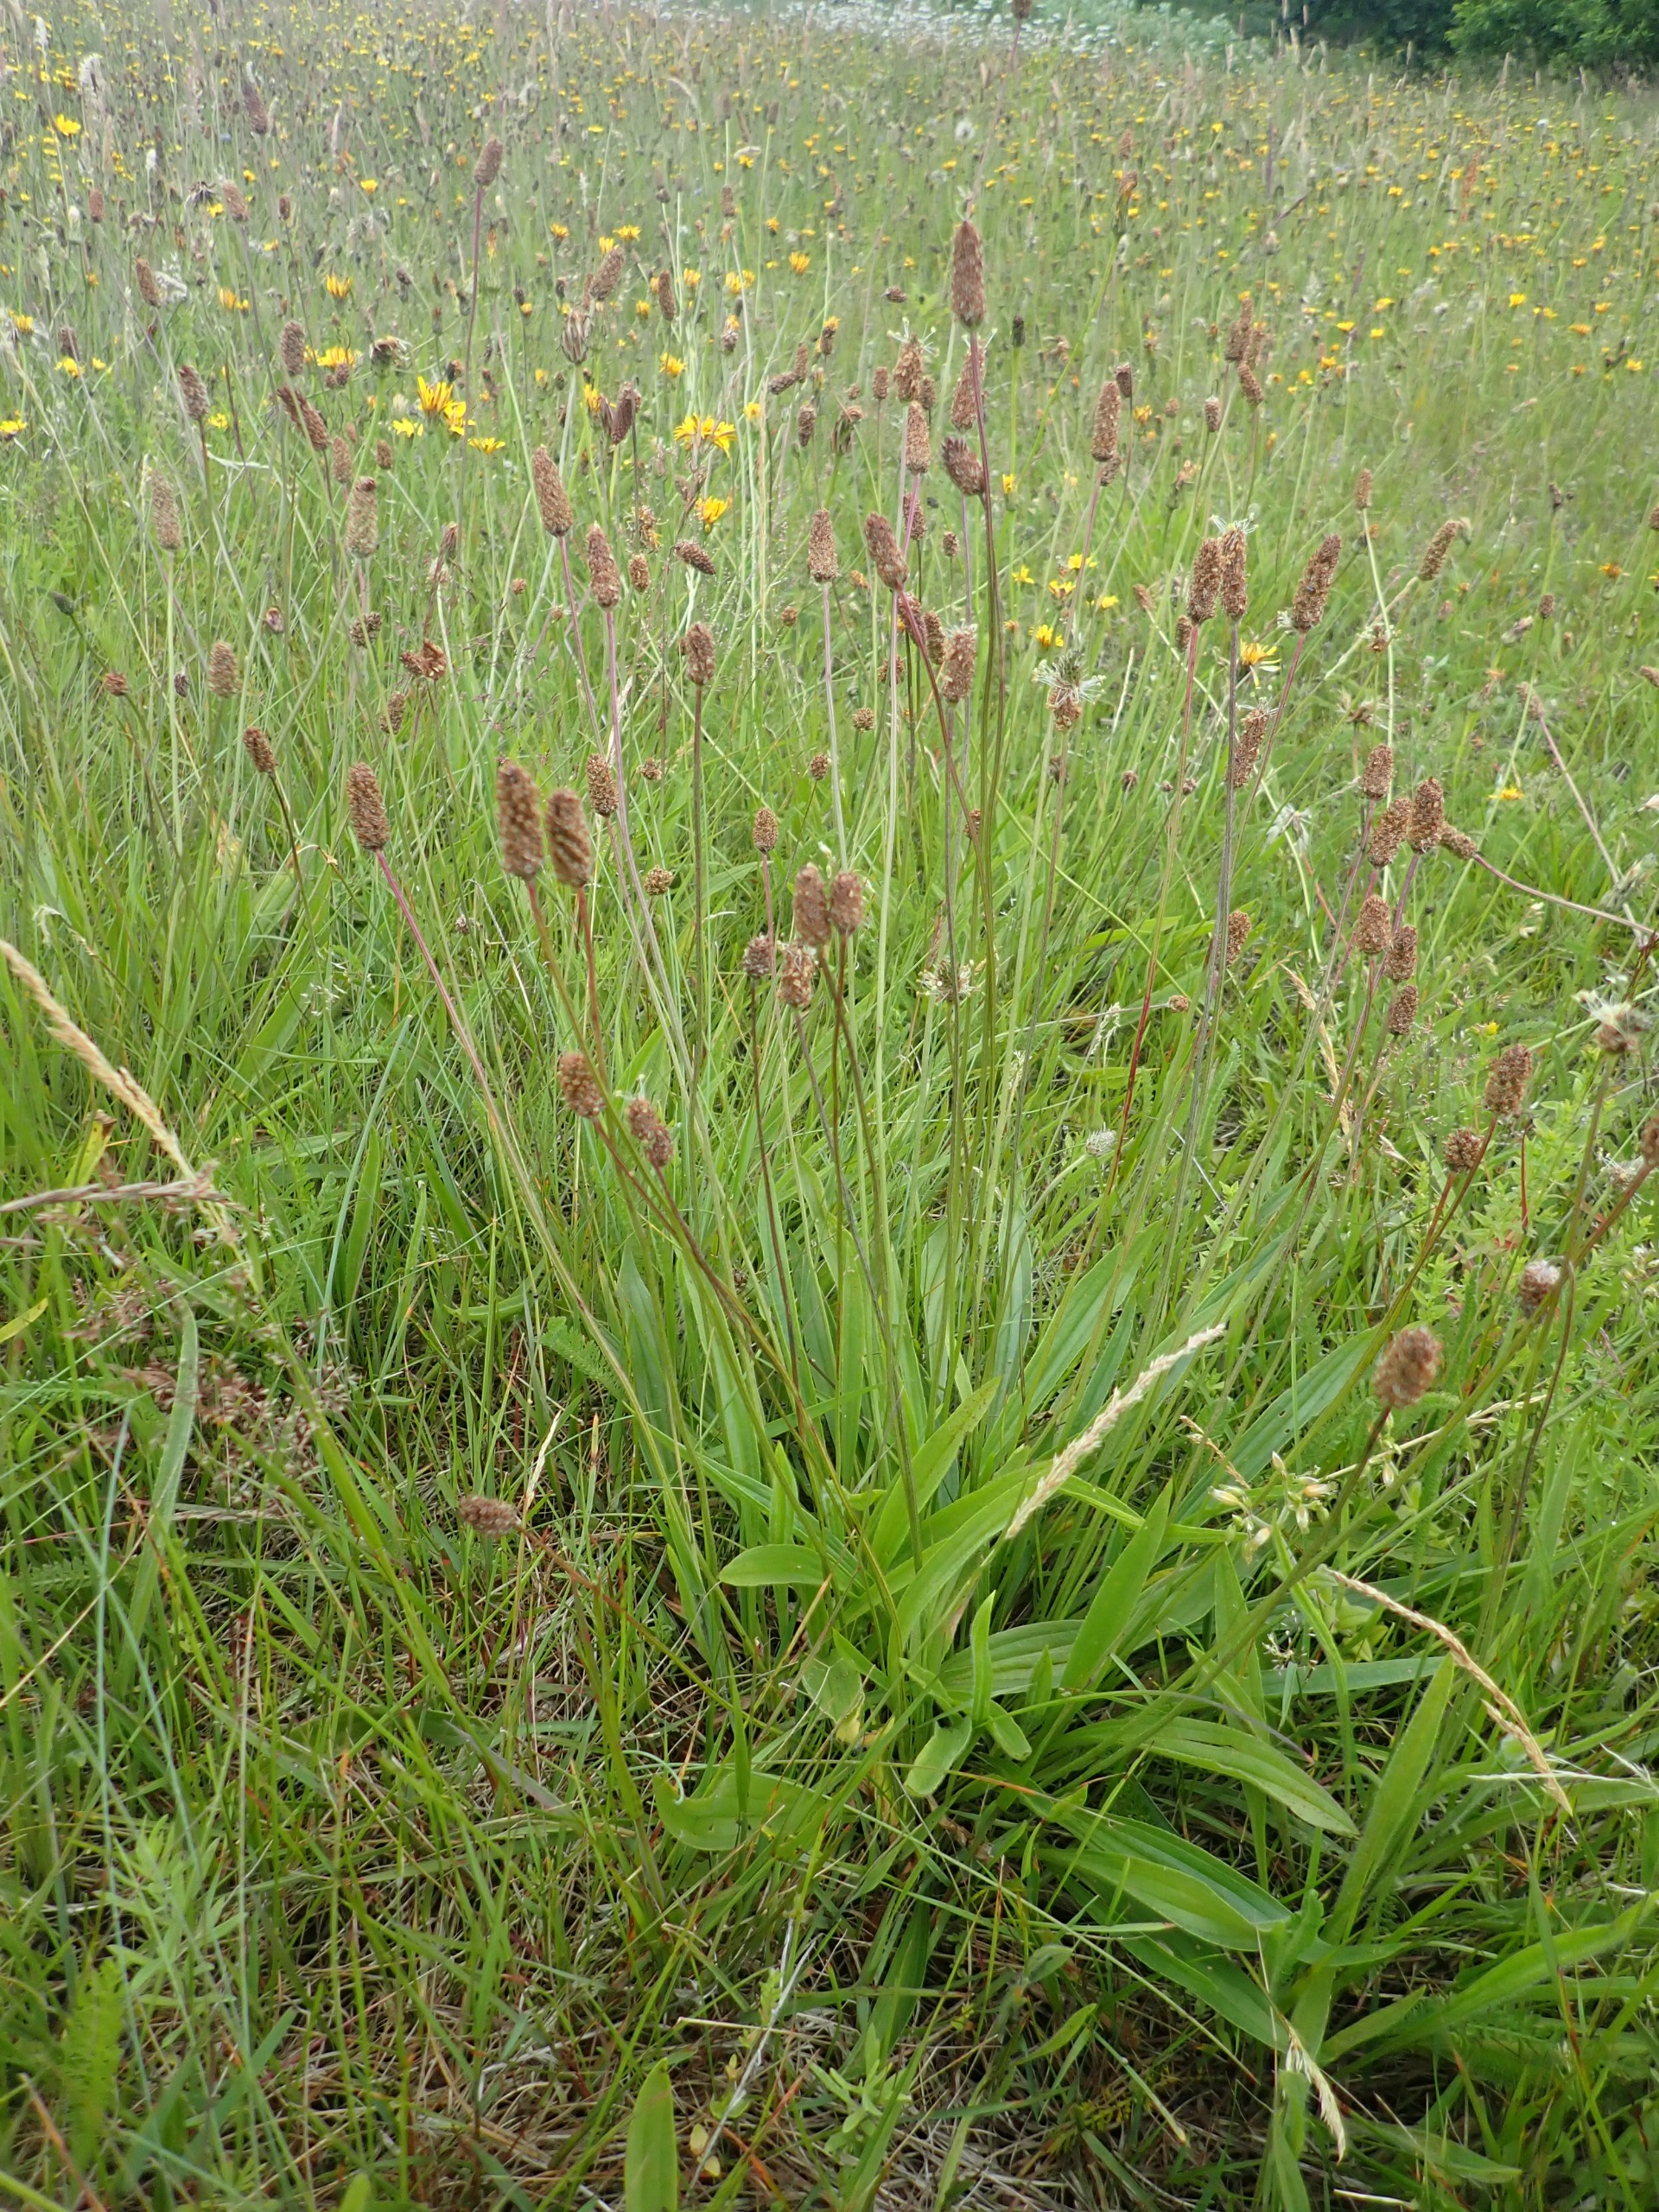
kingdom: Plantae
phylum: Tracheophyta
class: Magnoliopsida
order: Lamiales
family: Plantaginaceae
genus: Plantago
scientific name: Plantago lanceolata
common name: Lancet-vejbred
